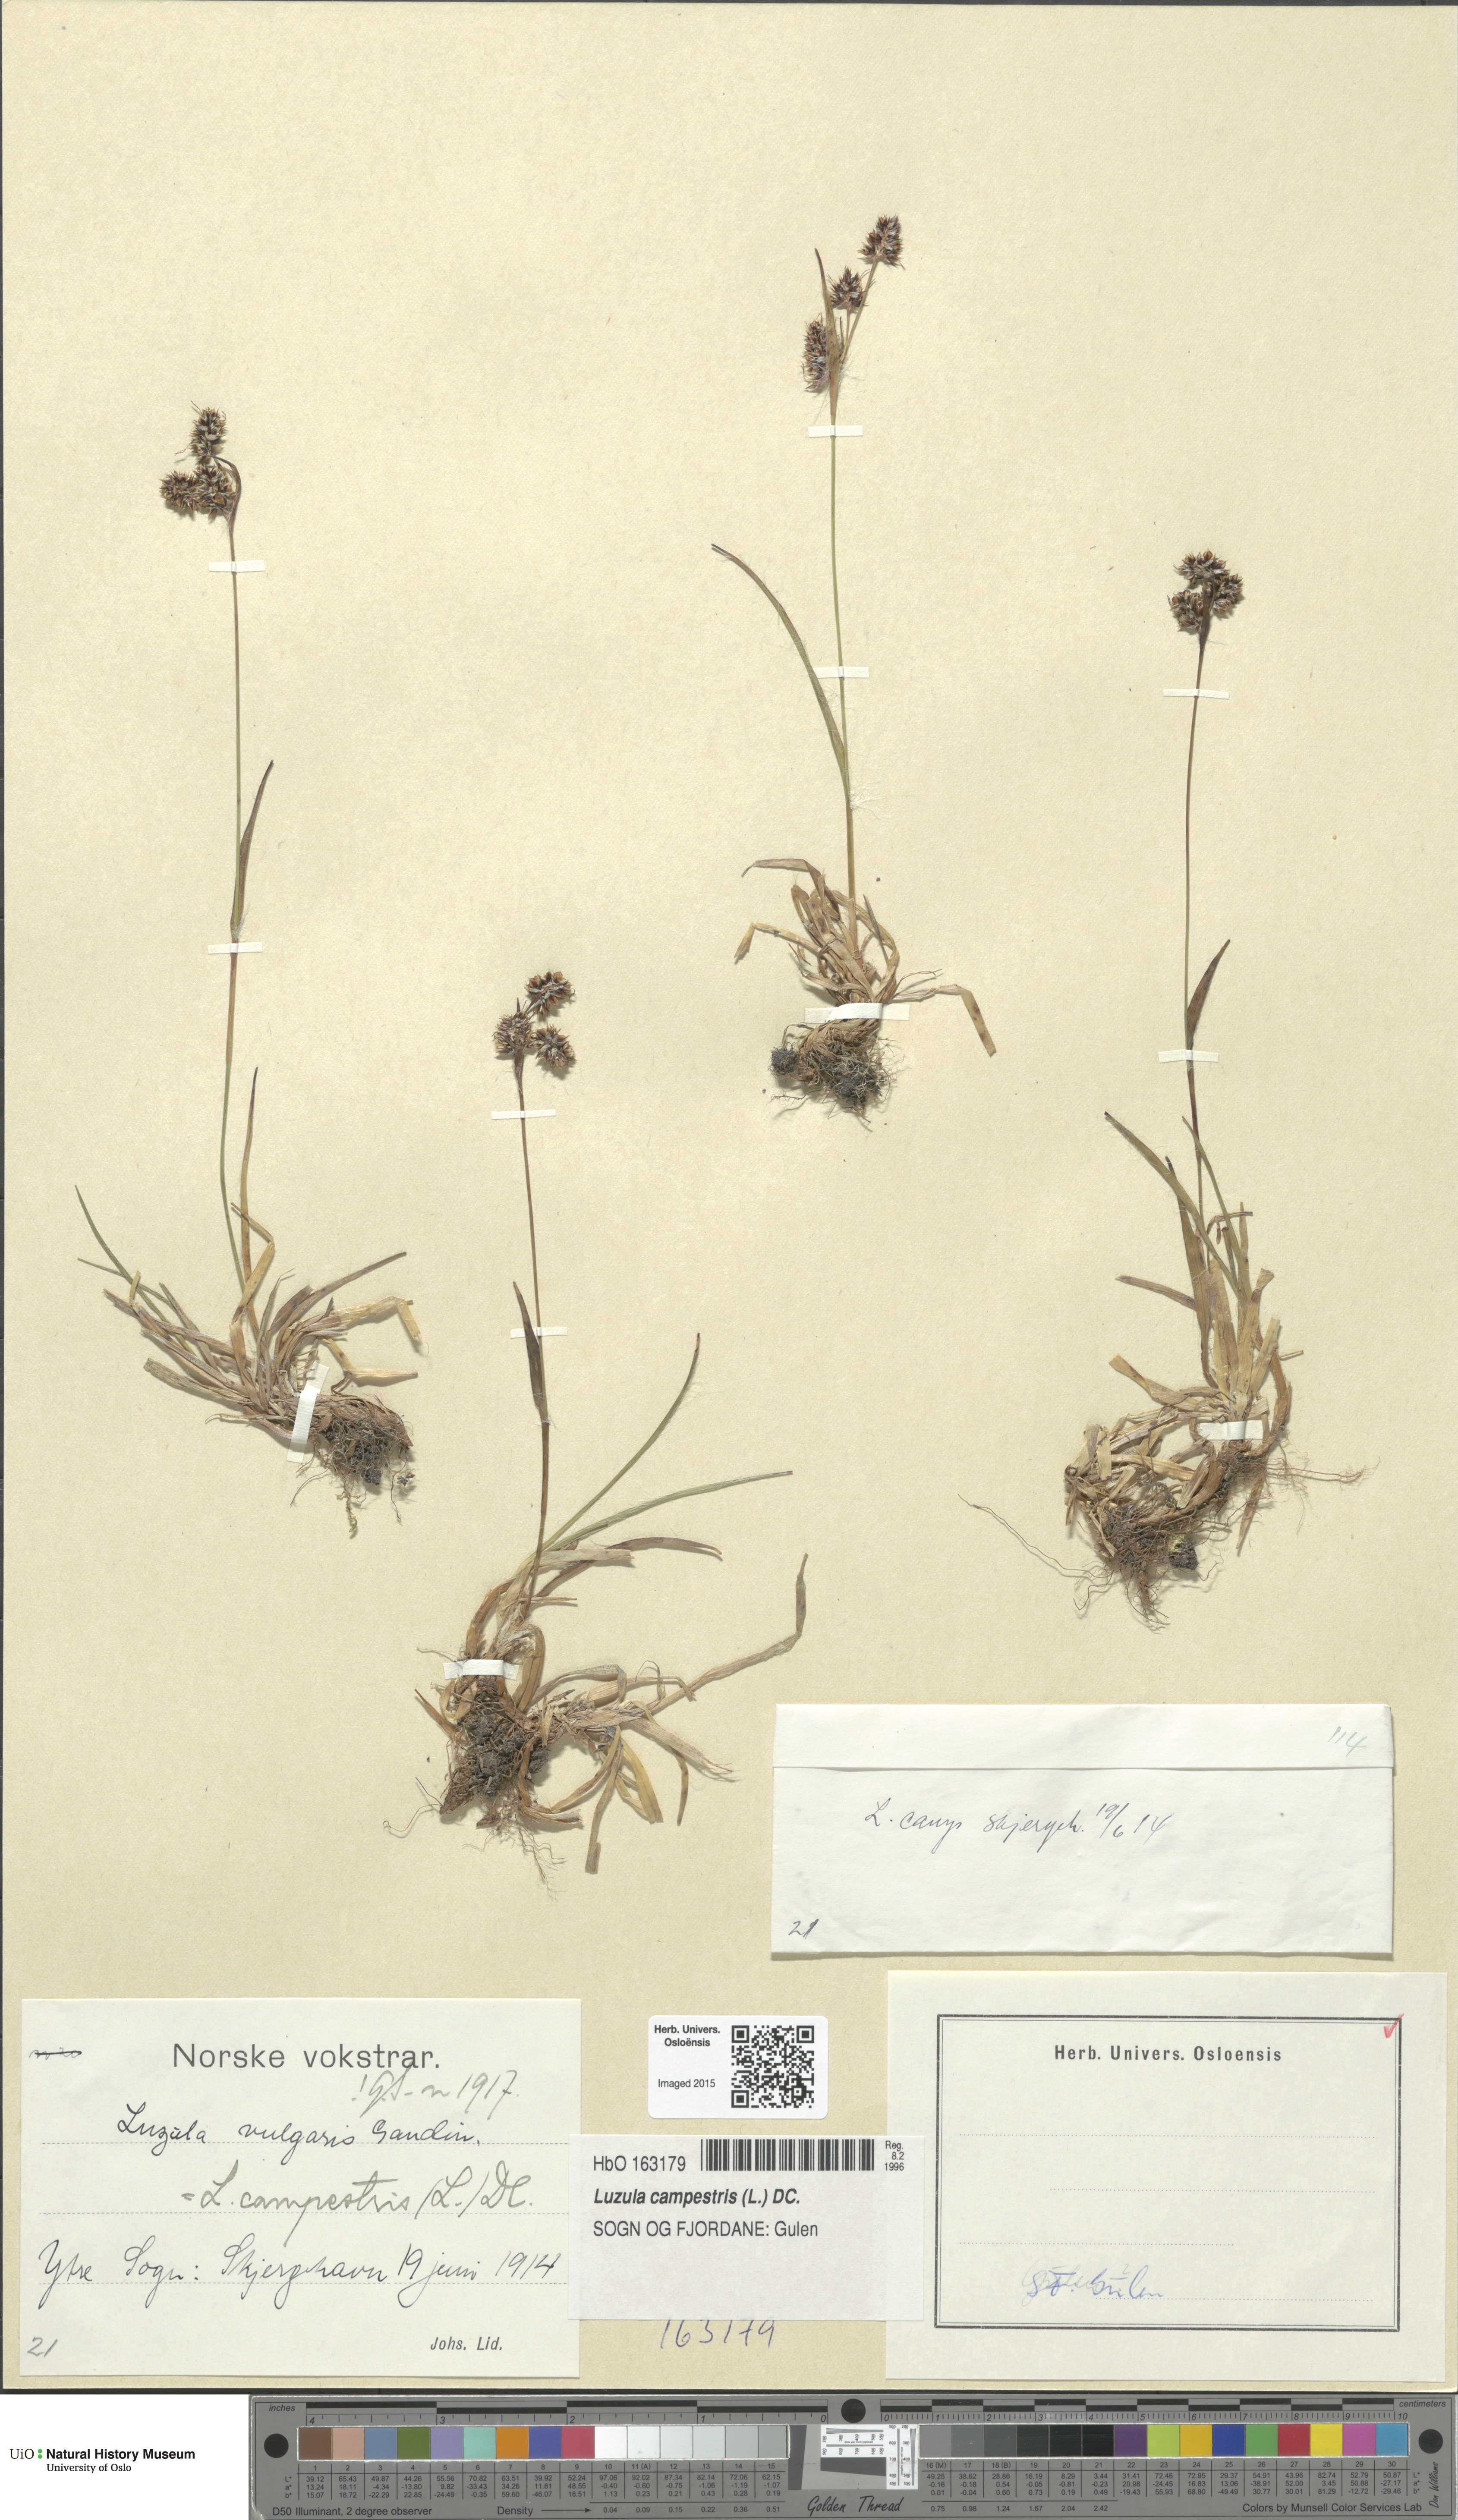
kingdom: Plantae
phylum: Tracheophyta
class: Liliopsida
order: Poales
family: Juncaceae
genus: Luzula
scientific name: Luzula campestris
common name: Field wood-rush
